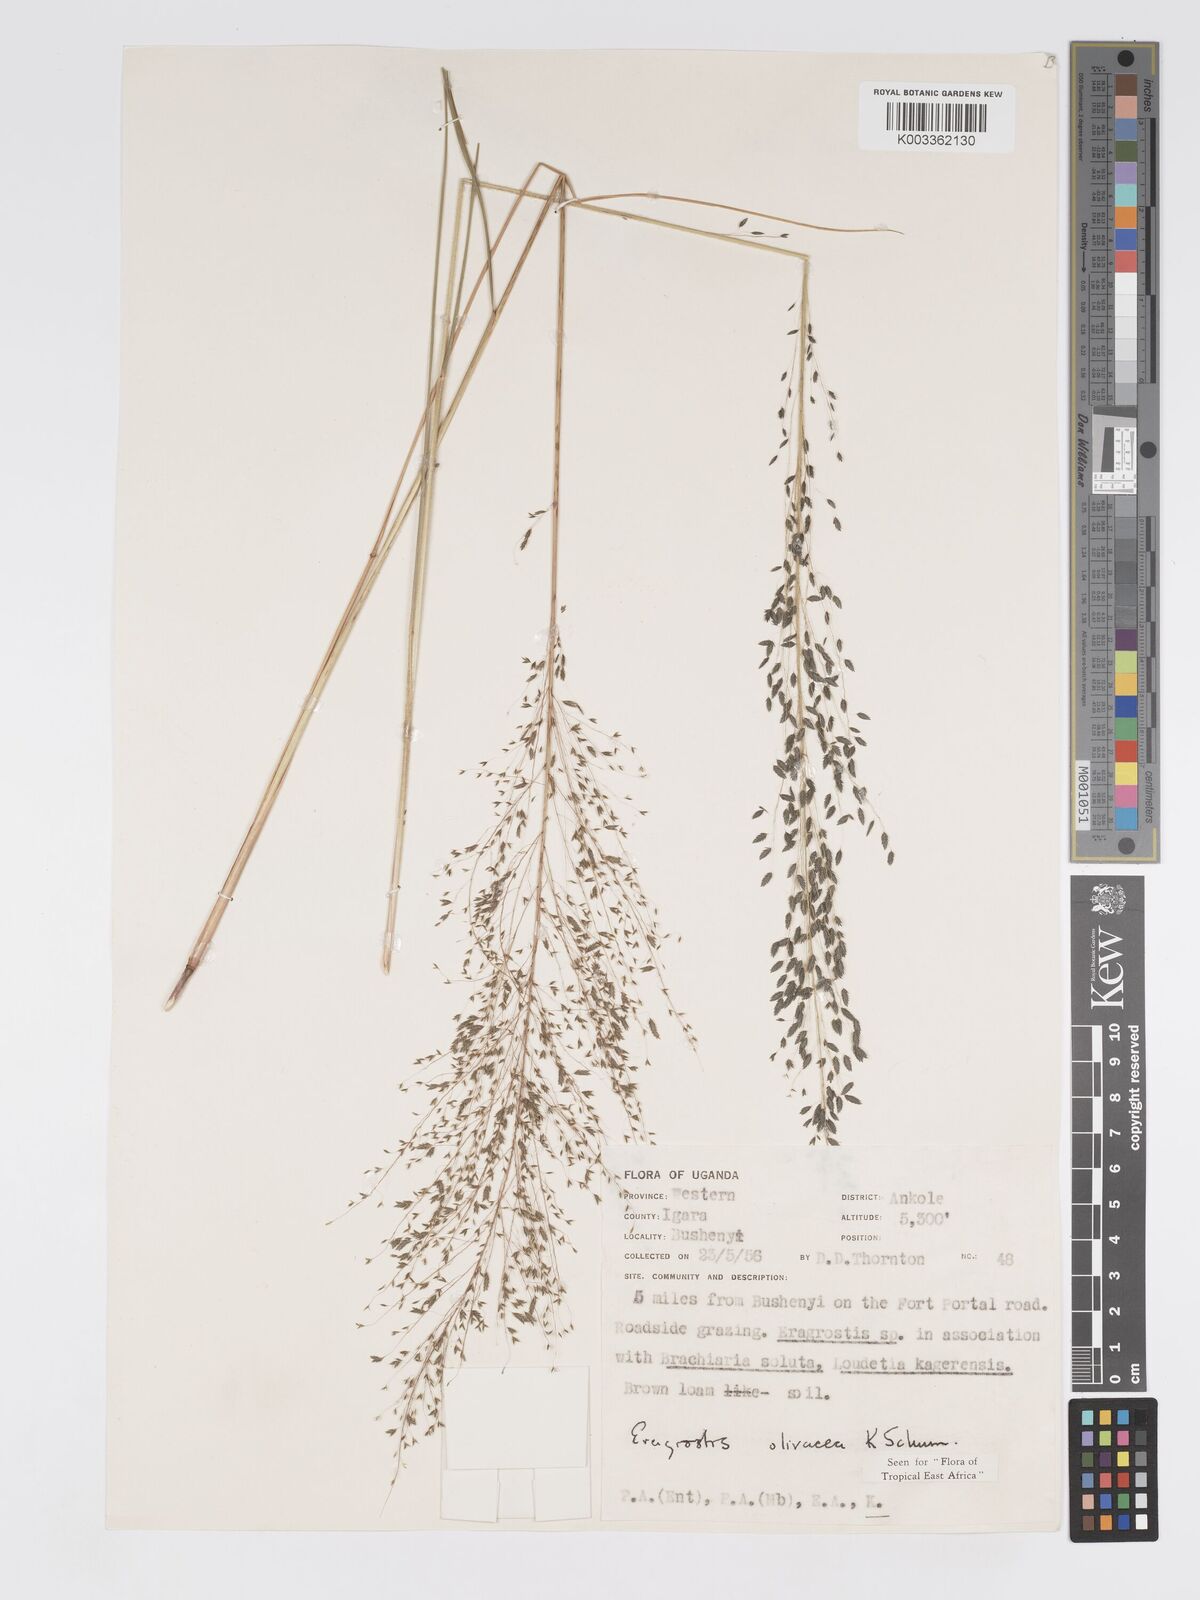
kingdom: Plantae
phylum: Tracheophyta
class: Liliopsida
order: Poales
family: Poaceae
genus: Eragrostis
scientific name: Eragrostis olivacea
